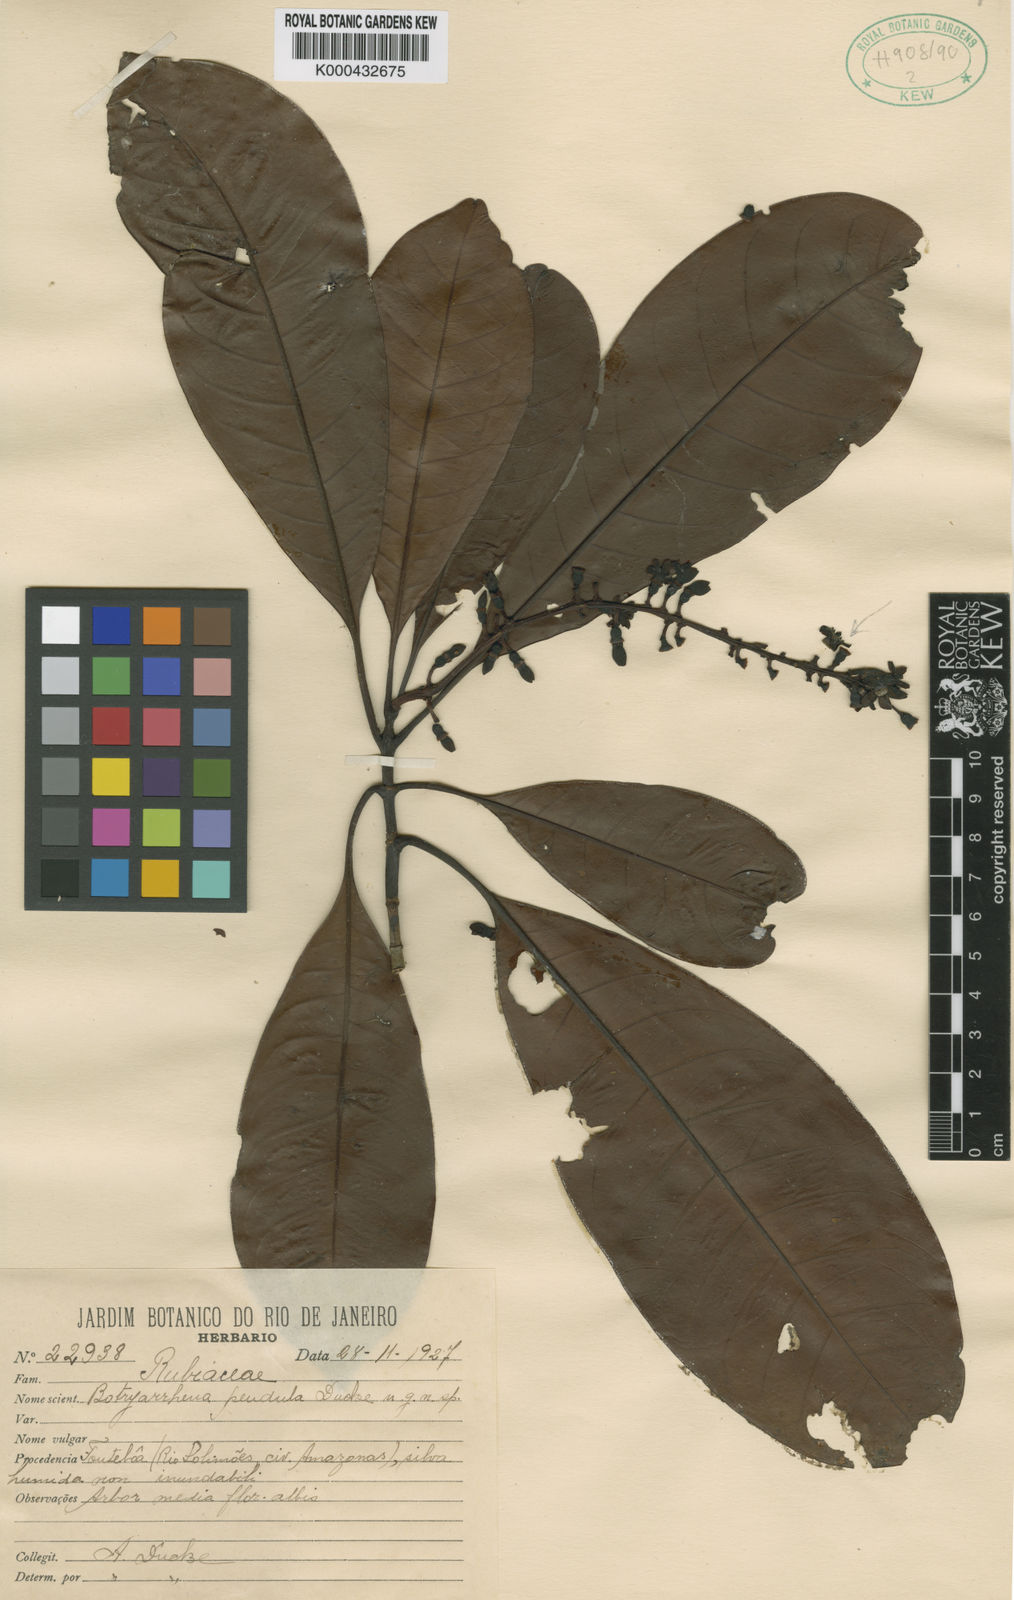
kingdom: Plantae
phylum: Tracheophyta
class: Magnoliopsida
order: Gentianales
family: Rubiaceae
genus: Botryarrhena
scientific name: Botryarrhena pendula
